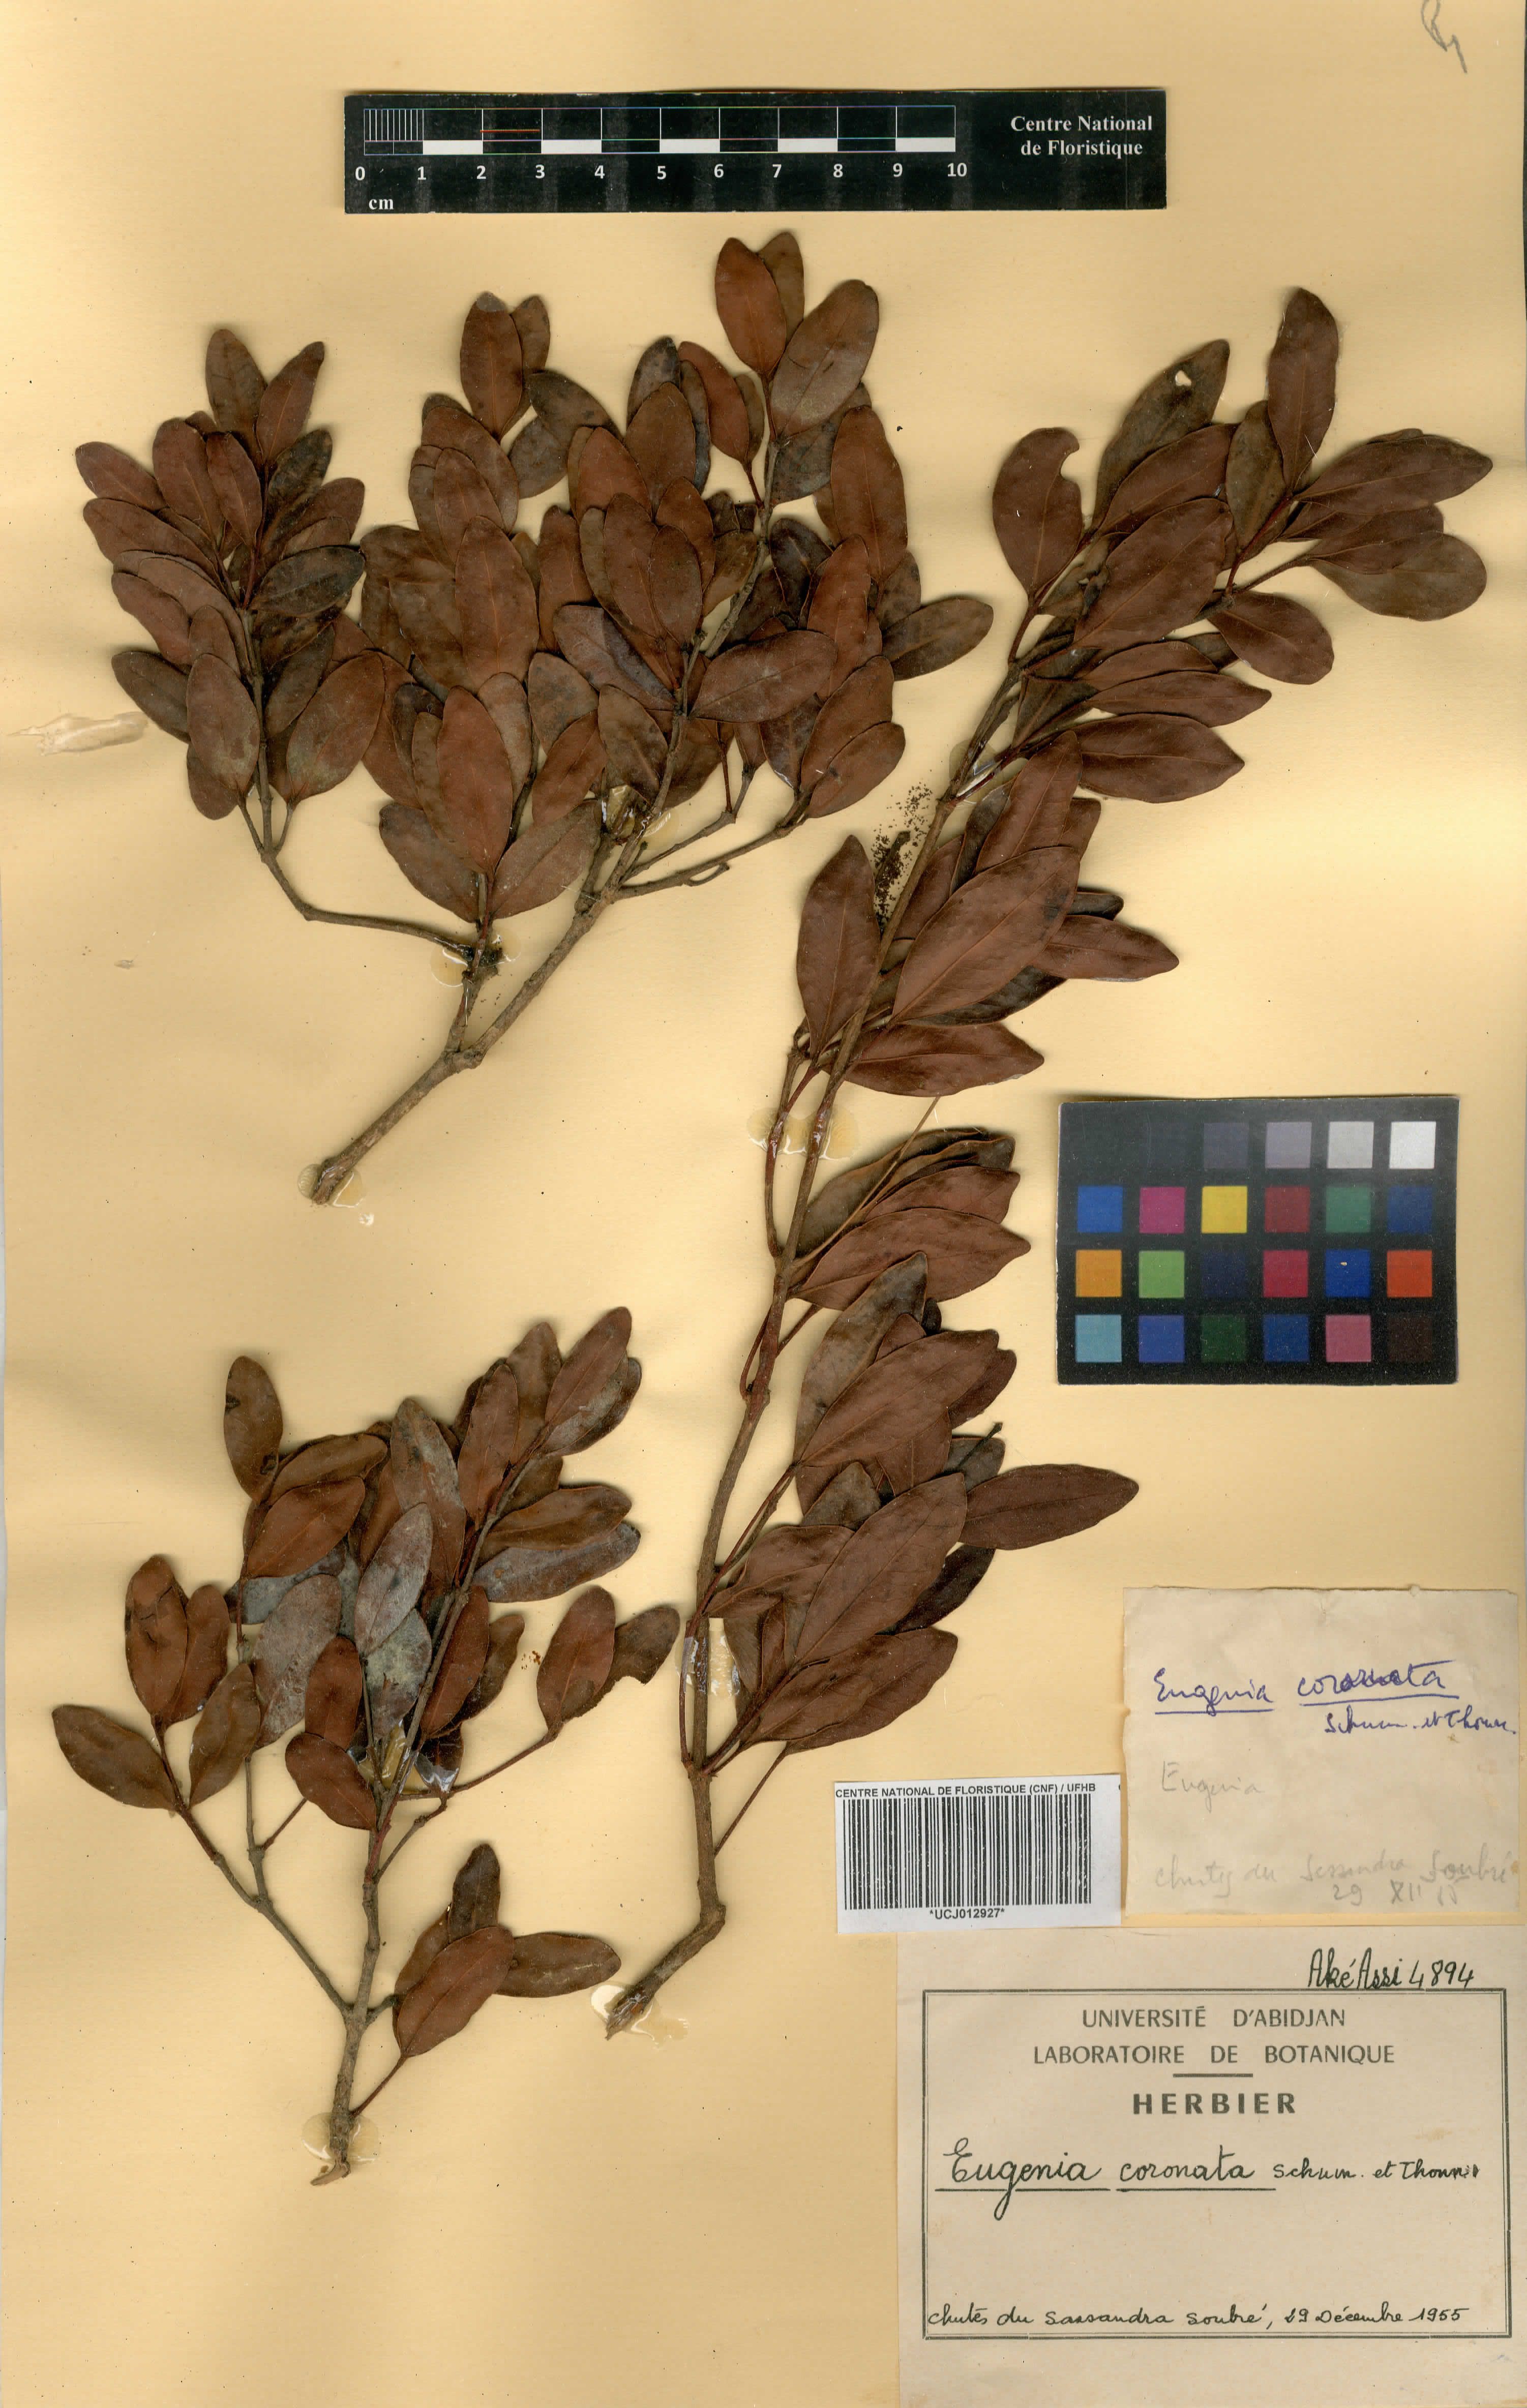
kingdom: Plantae
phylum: Tracheophyta
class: Magnoliopsida
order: Myrtales
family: Myrtaceae
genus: Eugenia
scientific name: Eugenia coronata
